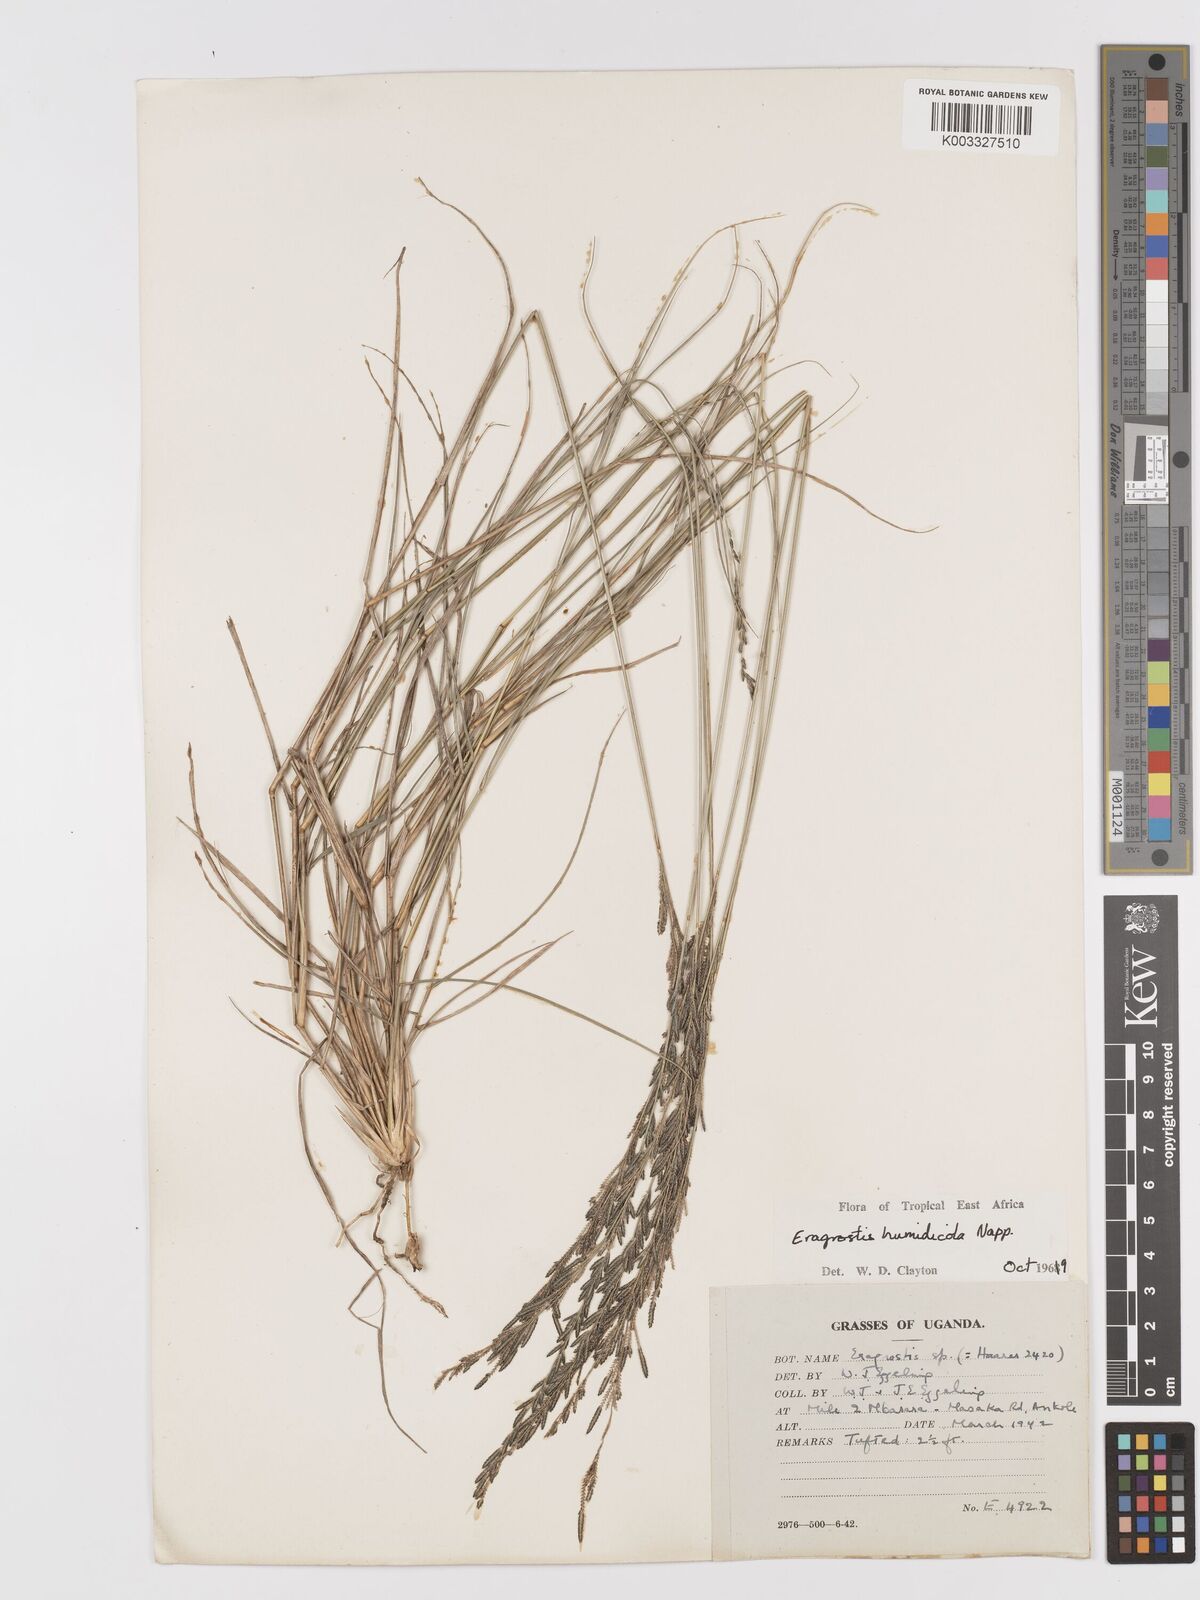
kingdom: Plantae
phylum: Tracheophyta
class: Liliopsida
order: Poales
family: Poaceae
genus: Eragrostis
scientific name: Eragrostis humidicola
